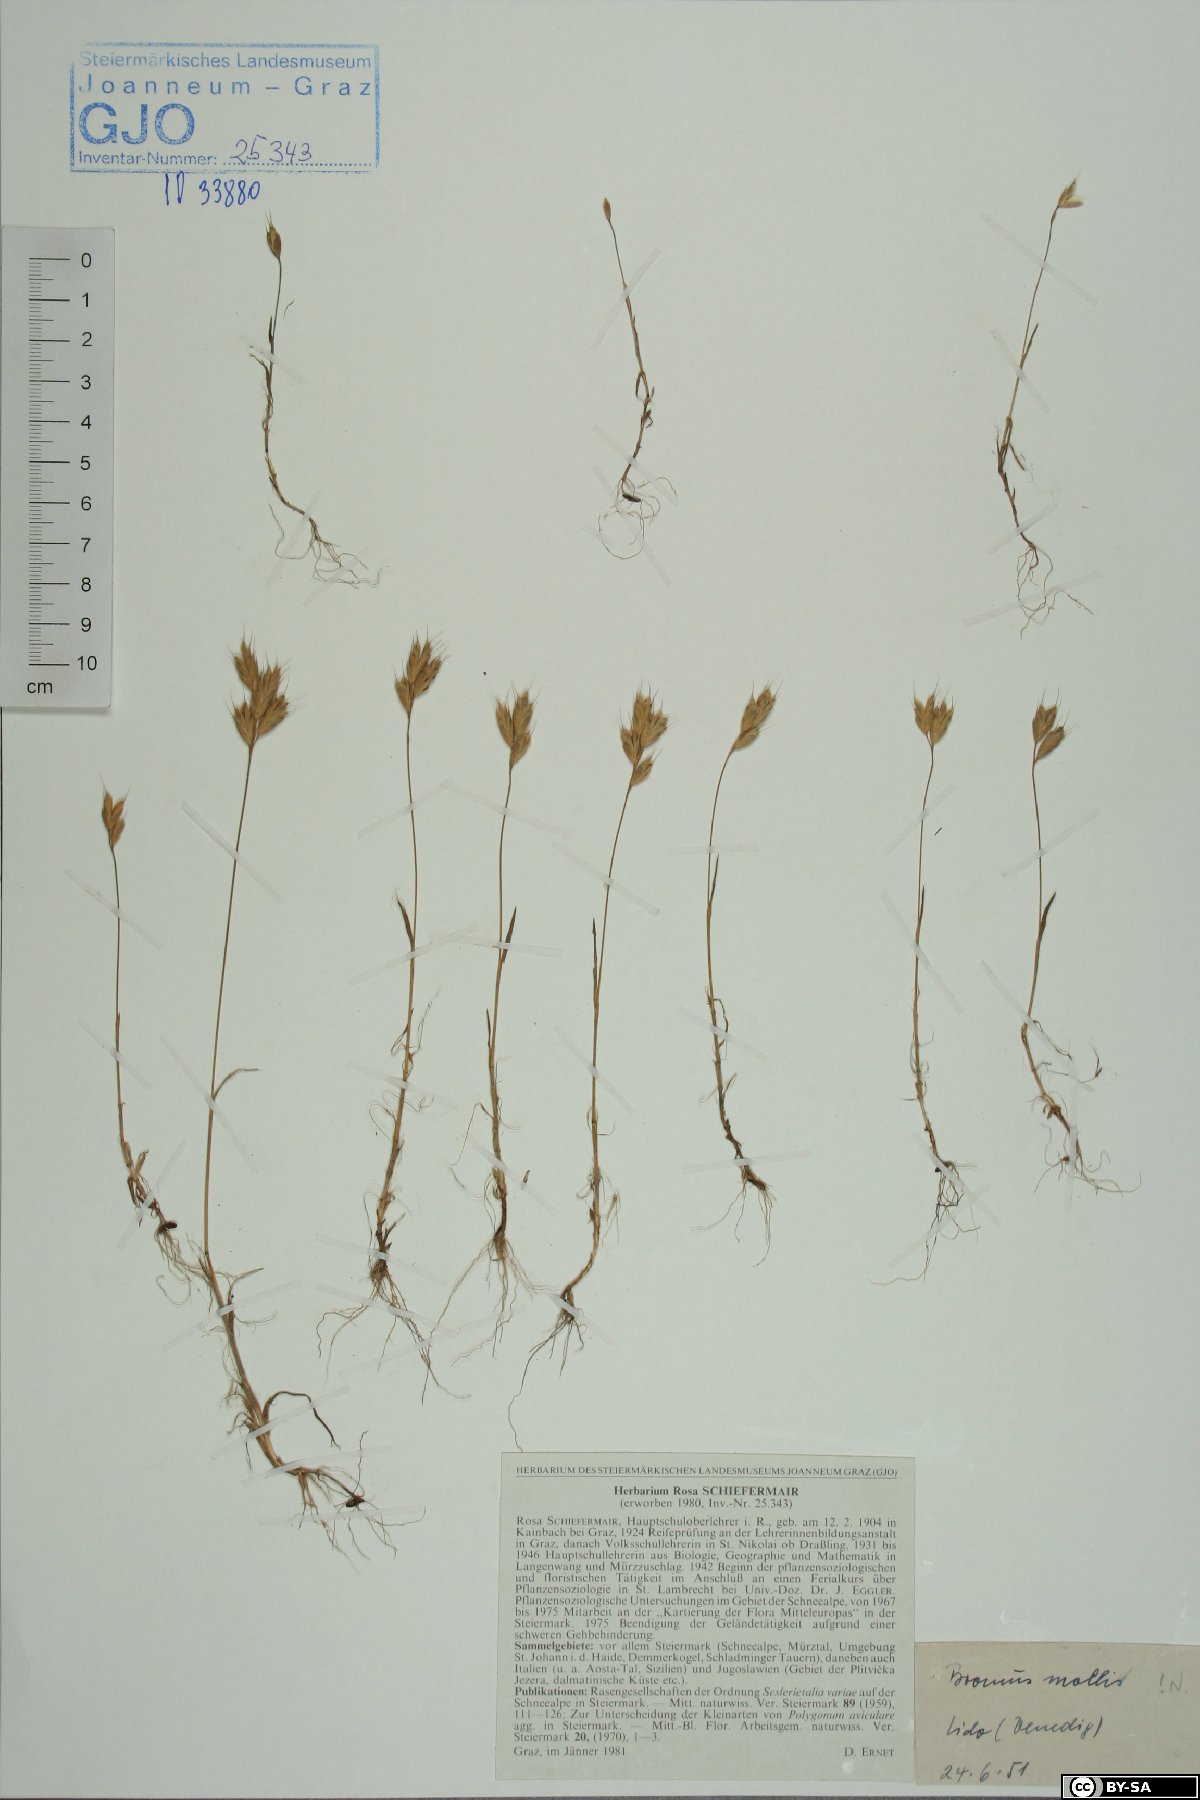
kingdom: Plantae
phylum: Tracheophyta
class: Liliopsida
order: Poales
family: Poaceae
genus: Bromus
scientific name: Bromus hordeaceus
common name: Soft brome
